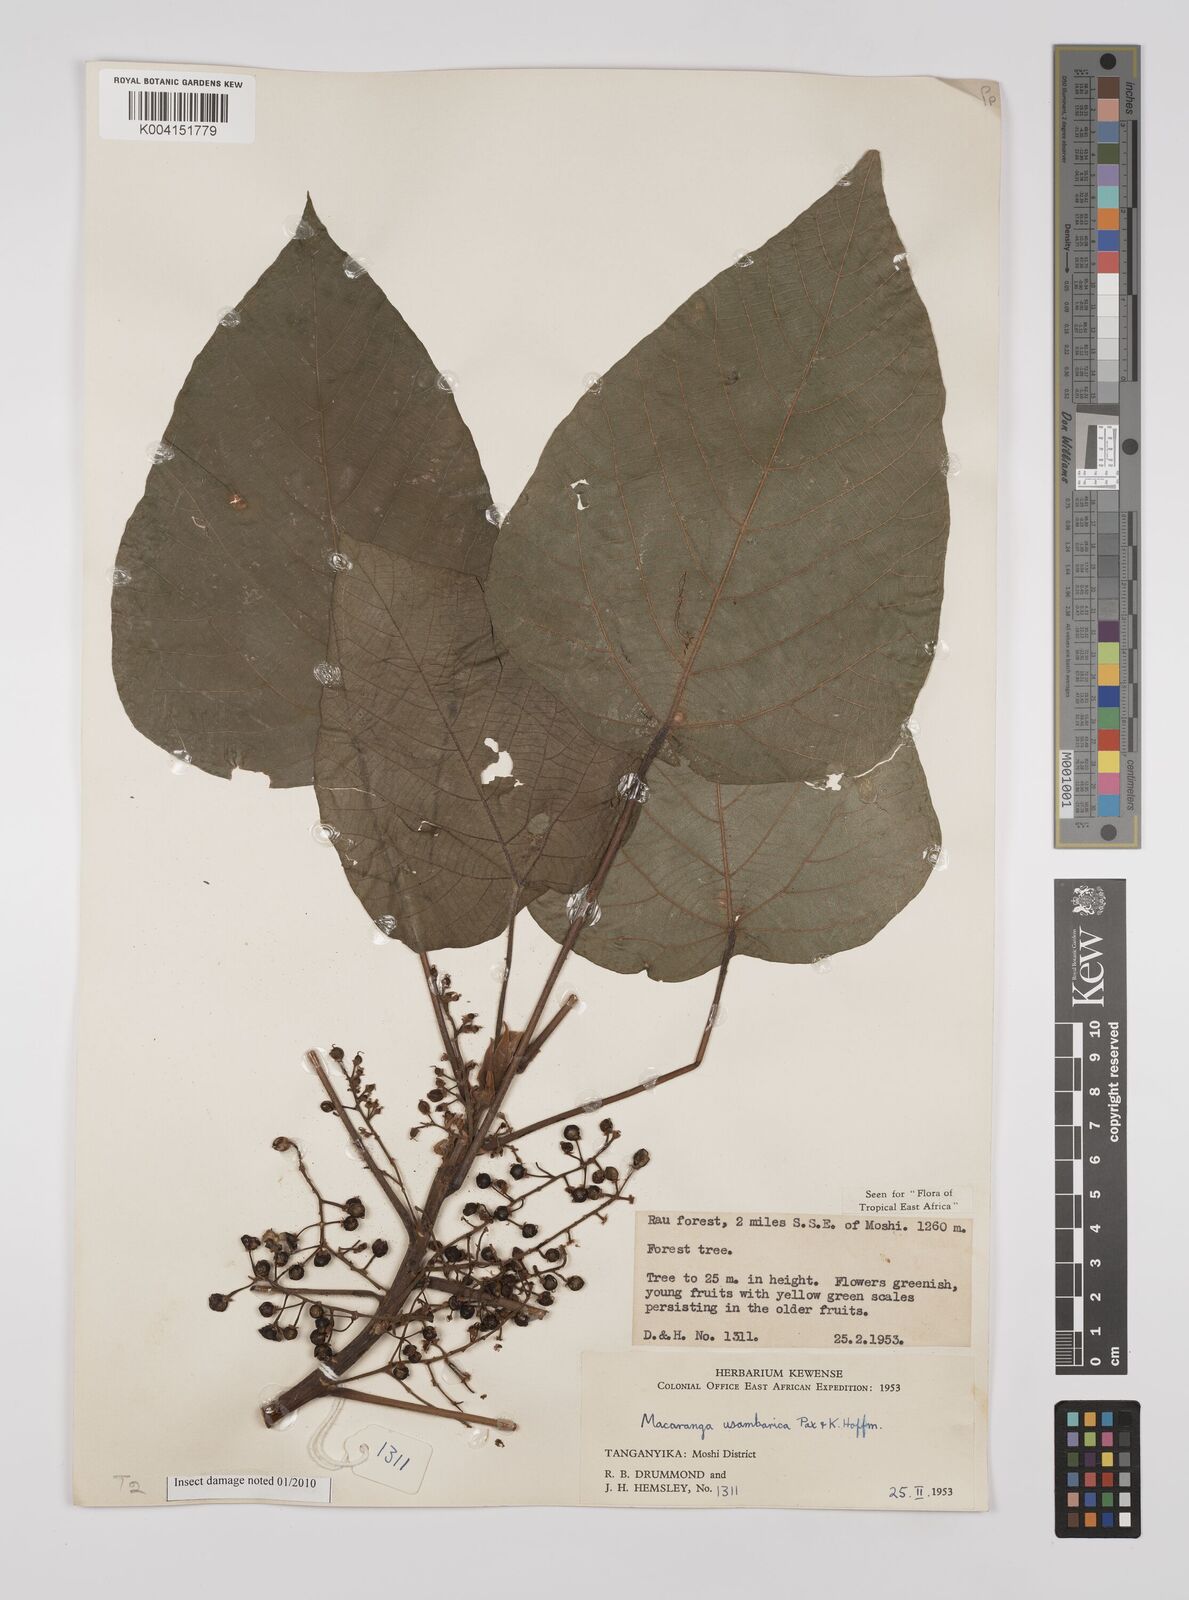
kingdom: Plantae
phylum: Tracheophyta
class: Magnoliopsida
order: Malpighiales
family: Euphorbiaceae
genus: Macaranga
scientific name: Macaranga capensis
